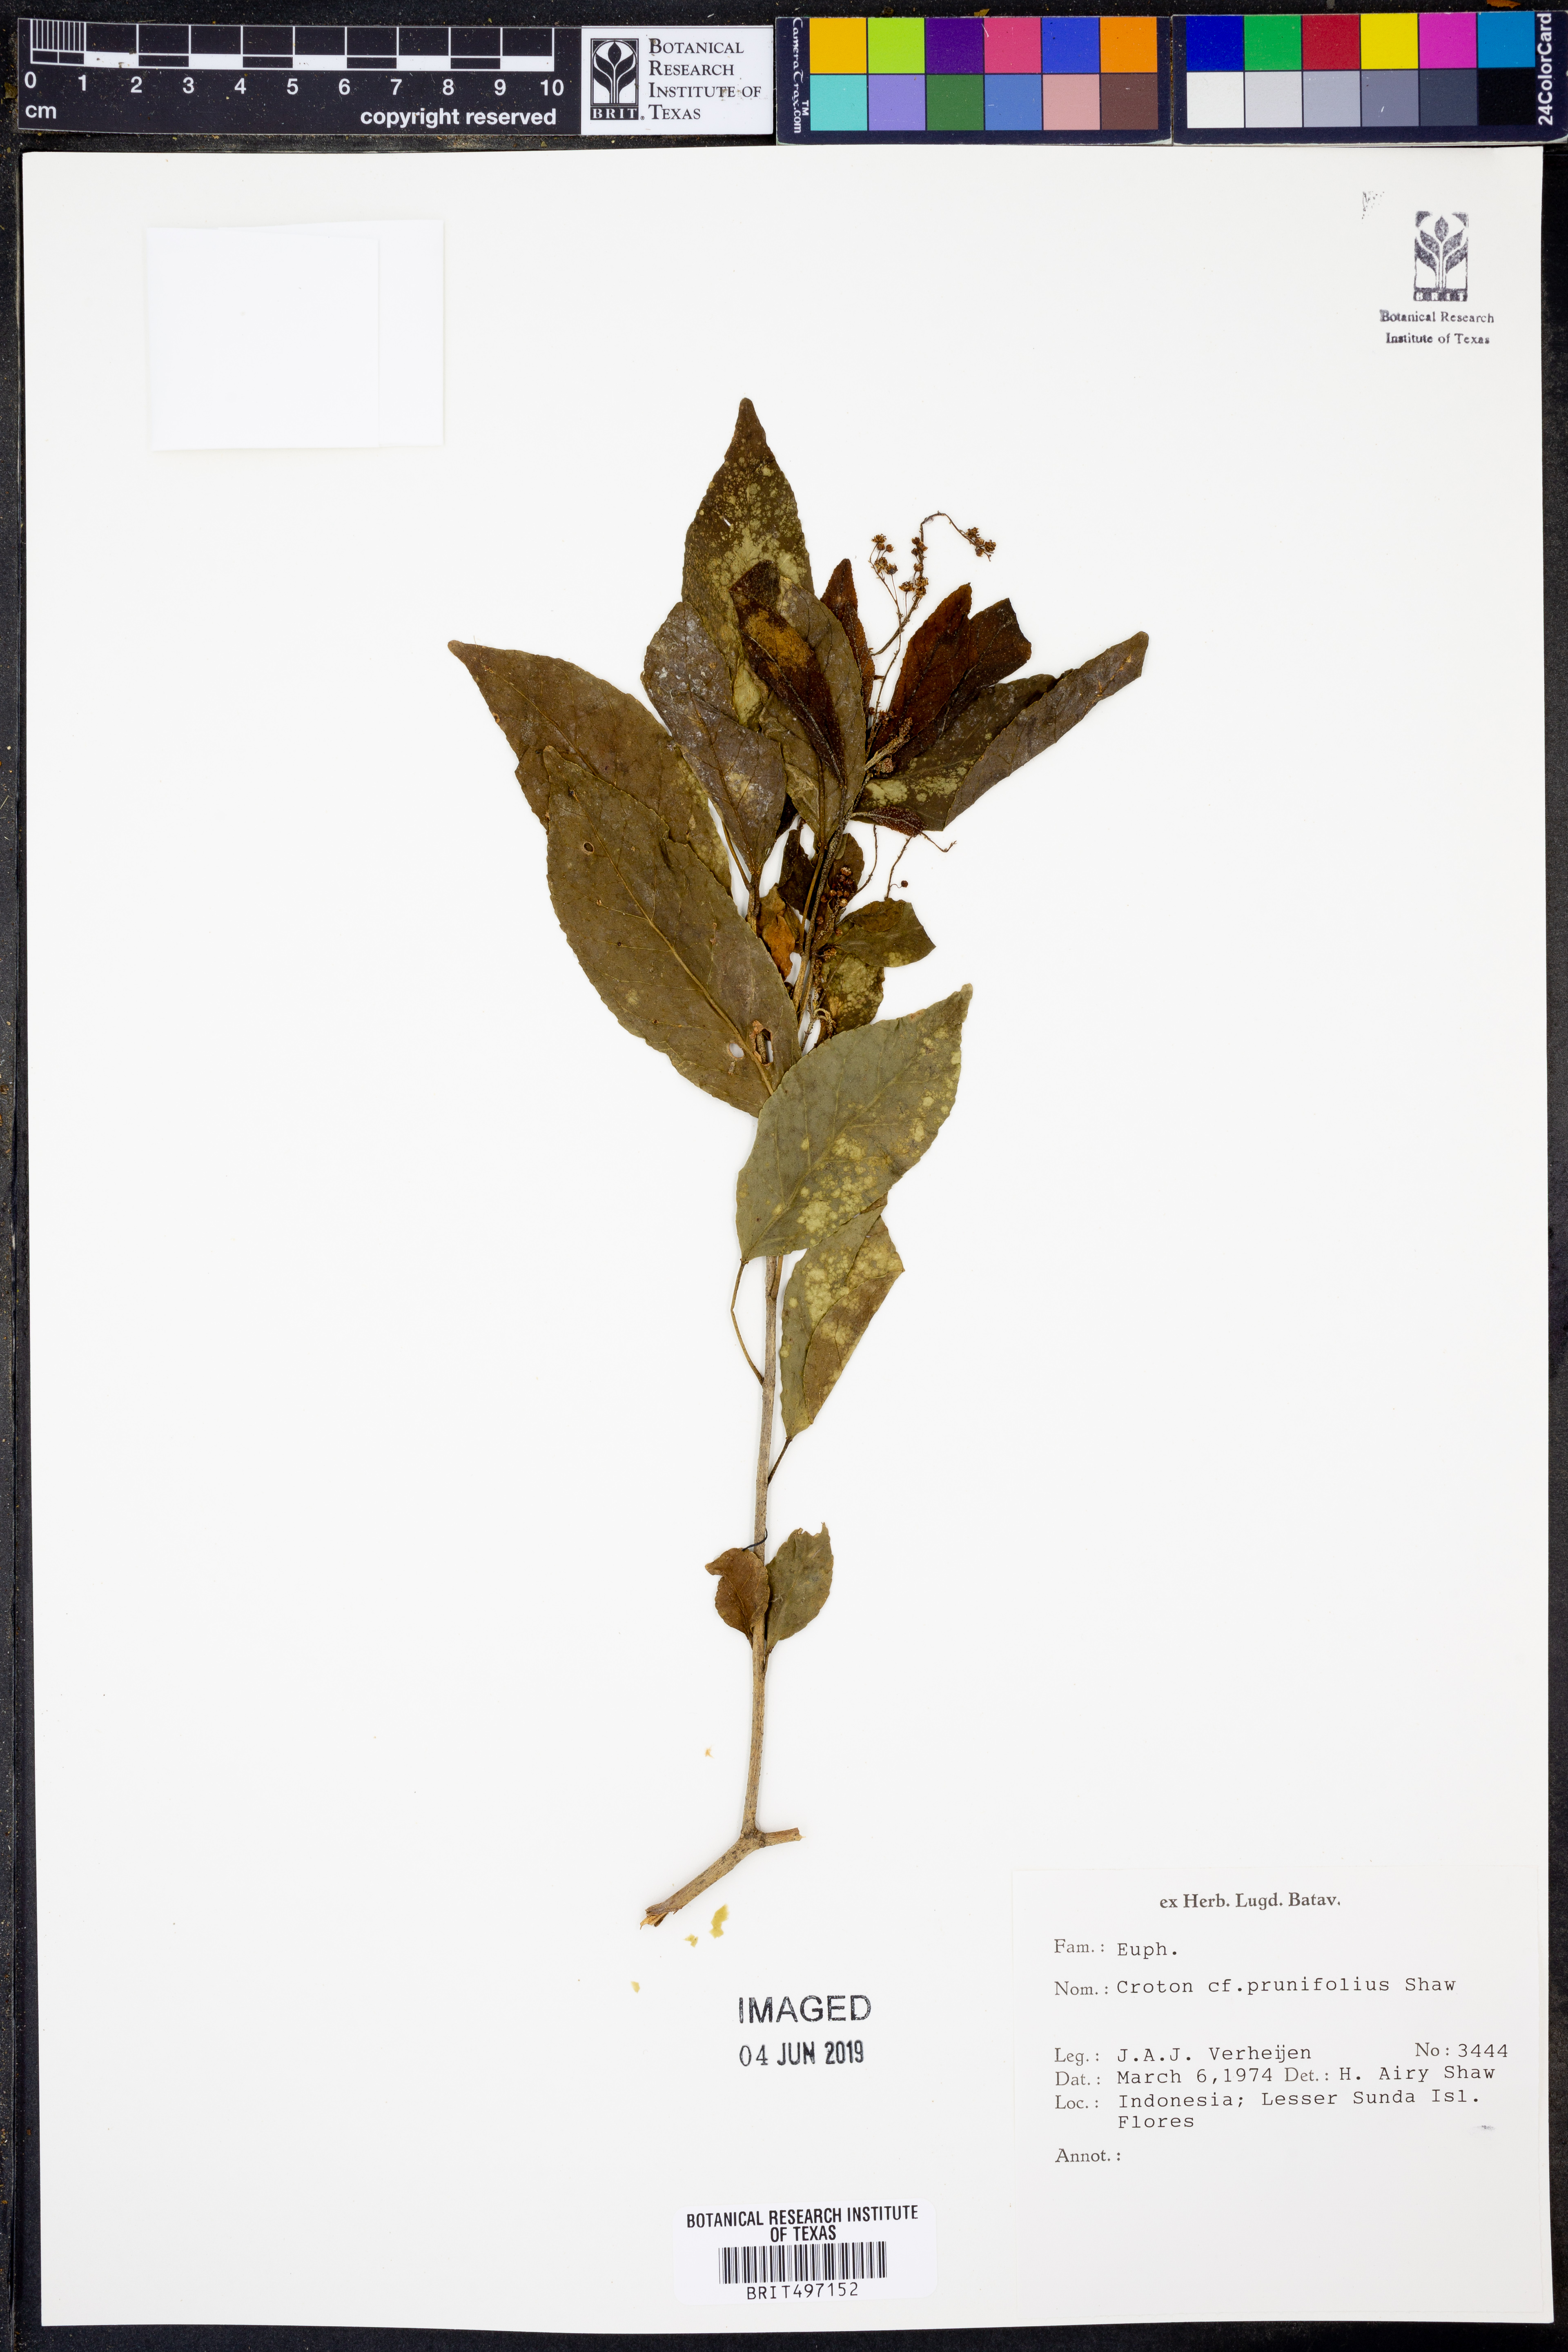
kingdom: Plantae
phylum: Tracheophyta
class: Magnoliopsida
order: Malpighiales
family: Euphorbiaceae
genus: Croton
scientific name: Croton nitens
